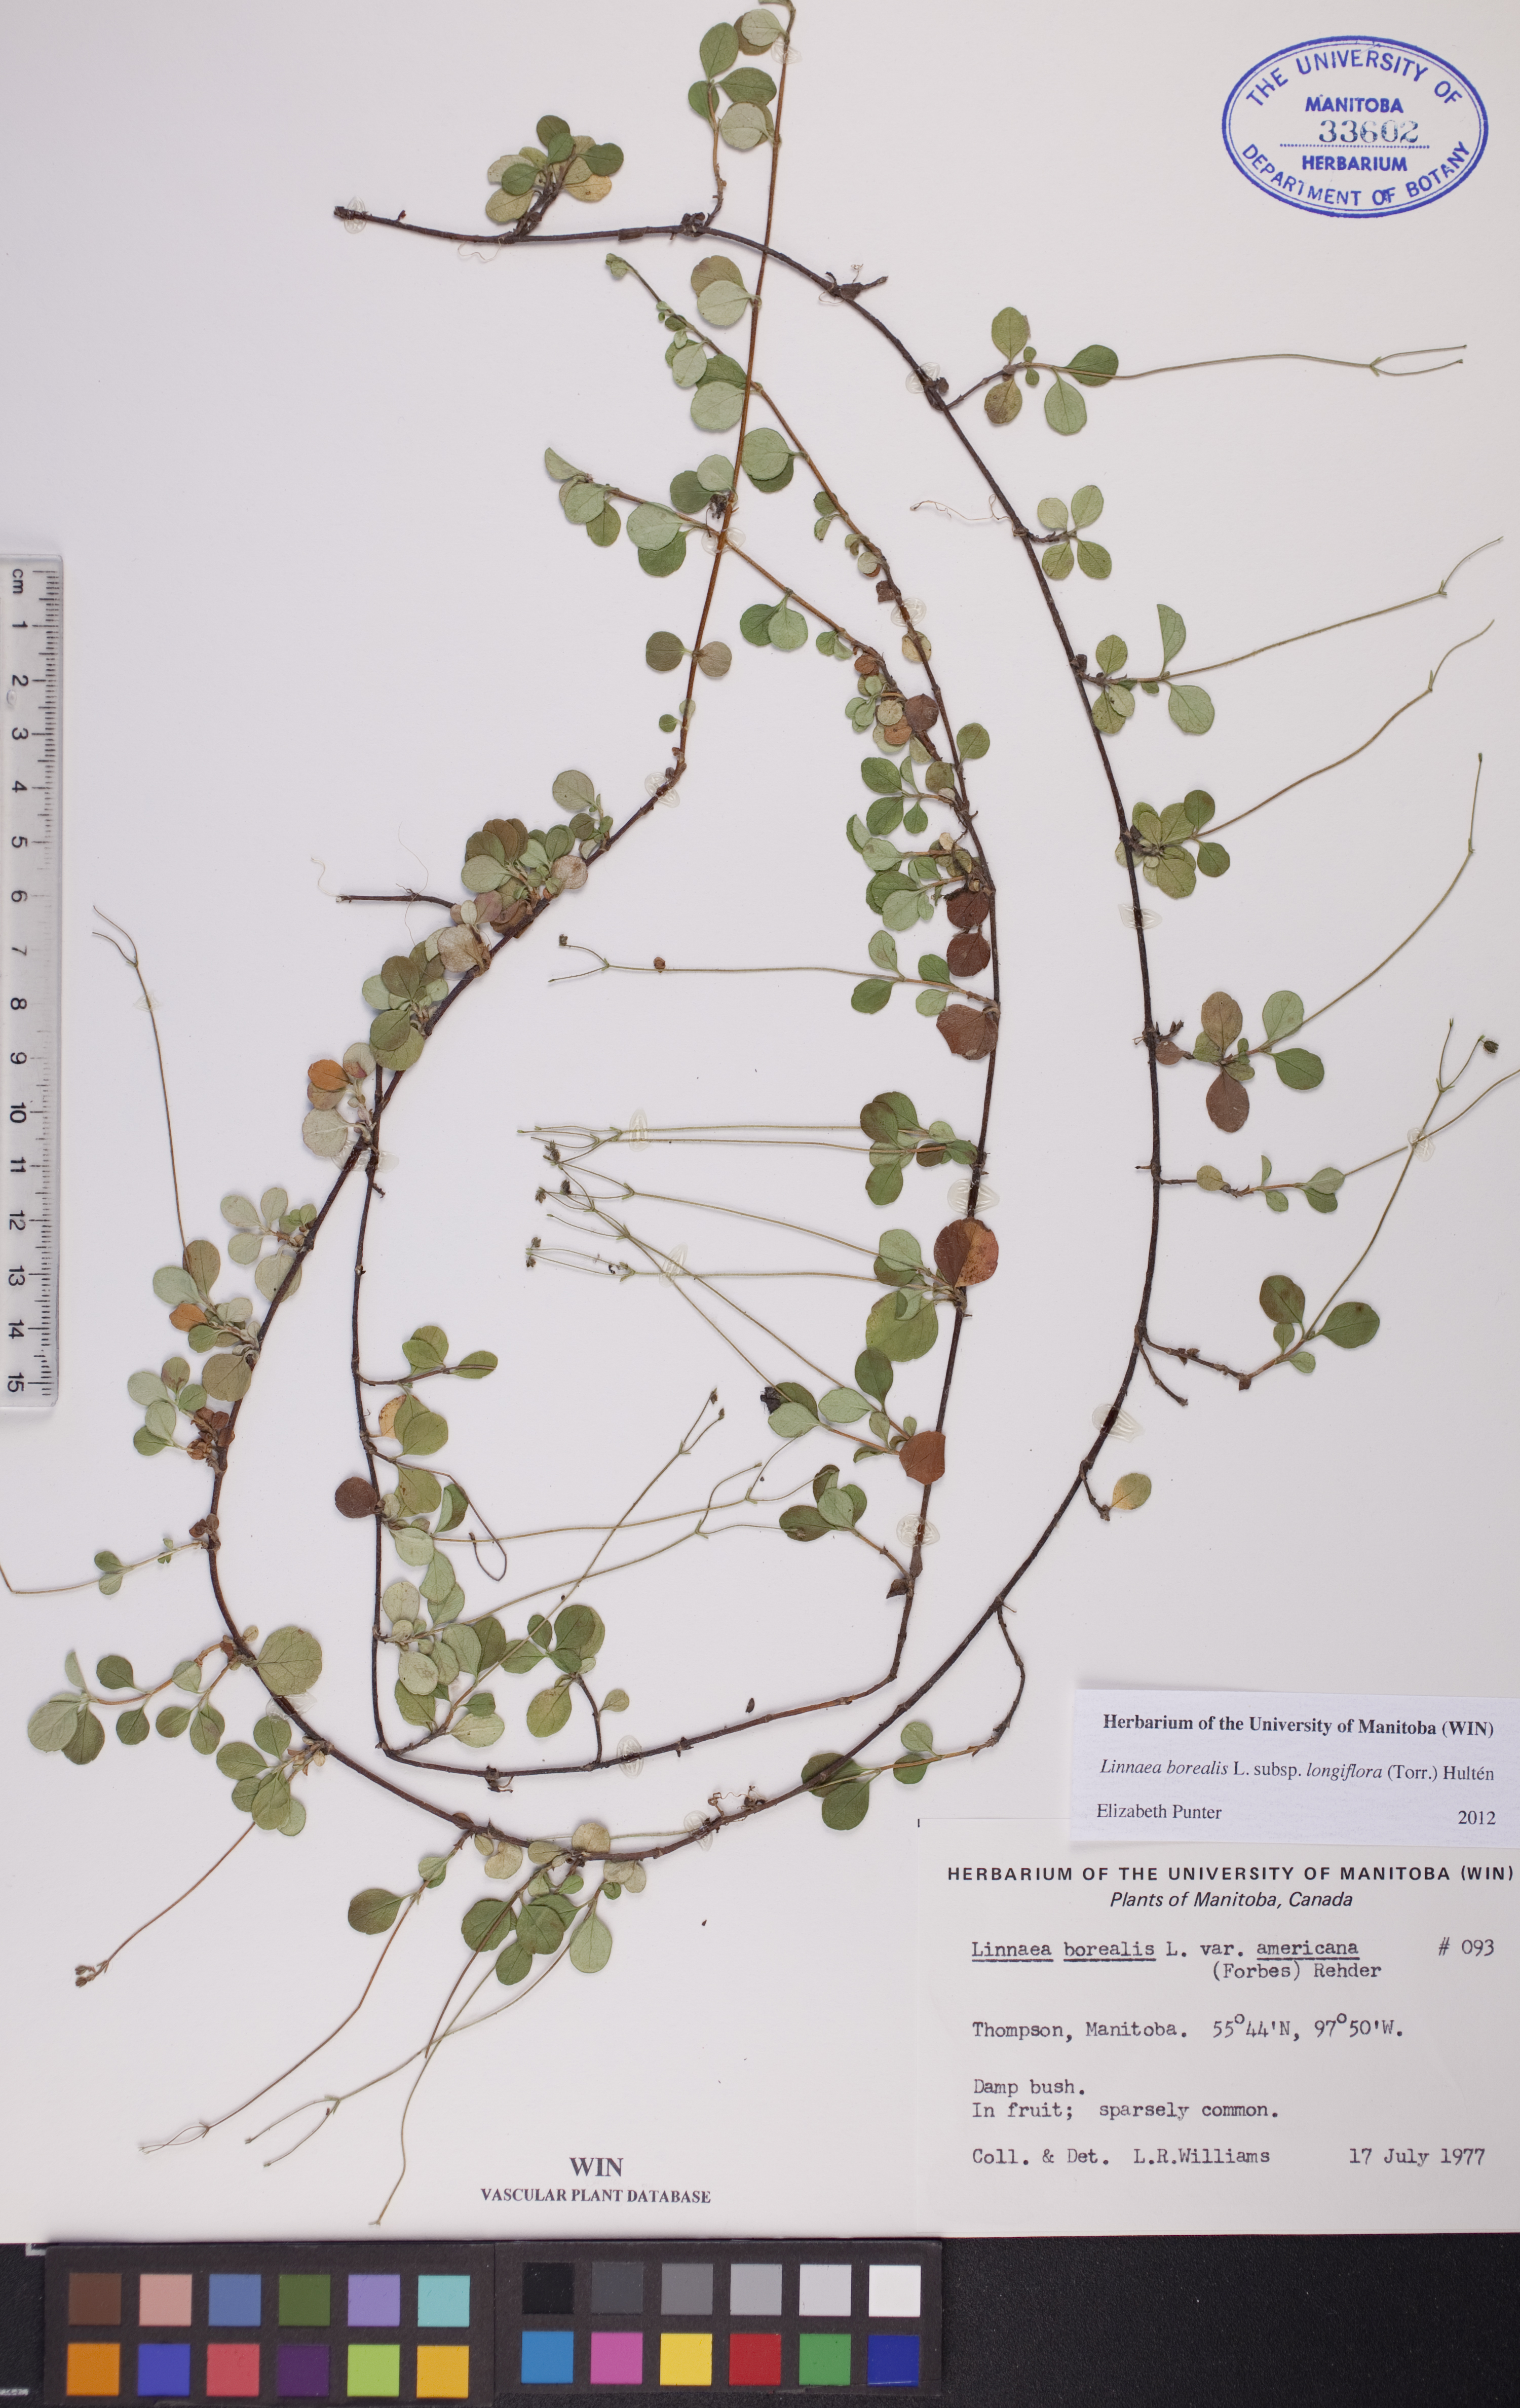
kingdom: Plantae
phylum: Tracheophyta
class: Magnoliopsida
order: Dipsacales
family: Caprifoliaceae
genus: Linnaea
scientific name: Linnaea borealis
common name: Twinflower
